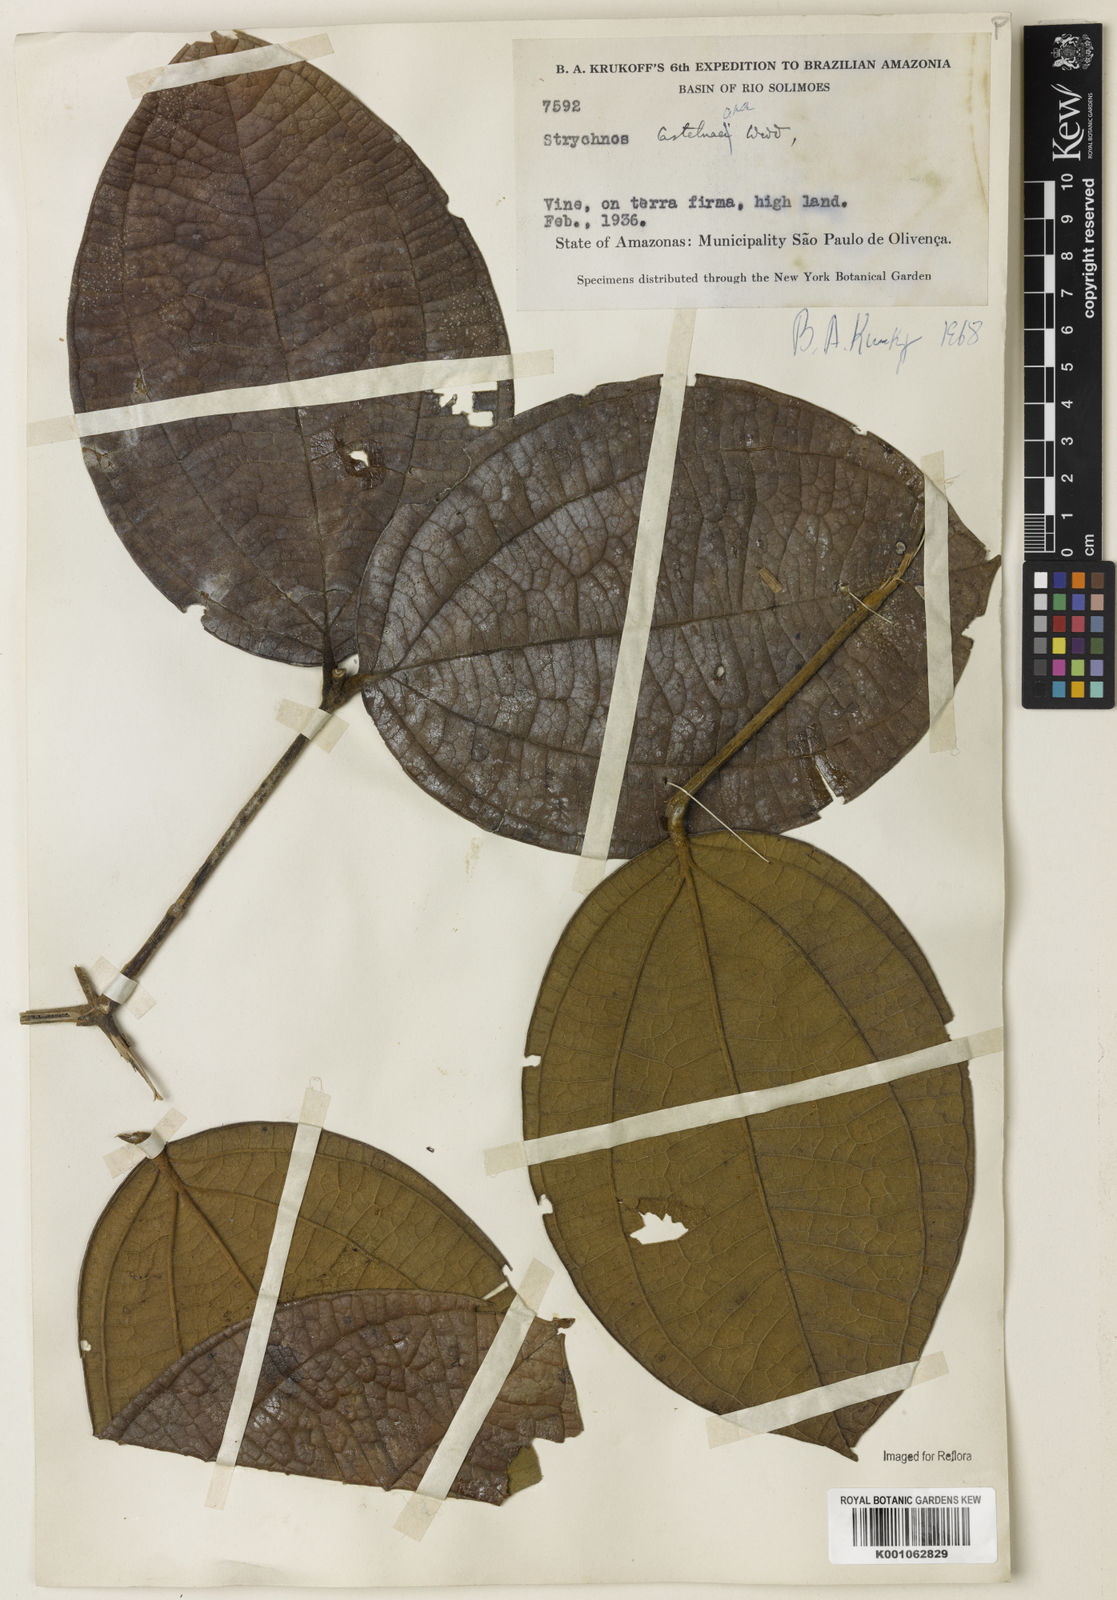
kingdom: Plantae
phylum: Tracheophyta
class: Magnoliopsida
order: Gentianales
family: Loganiaceae
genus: Strychnos
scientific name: Strychnos
